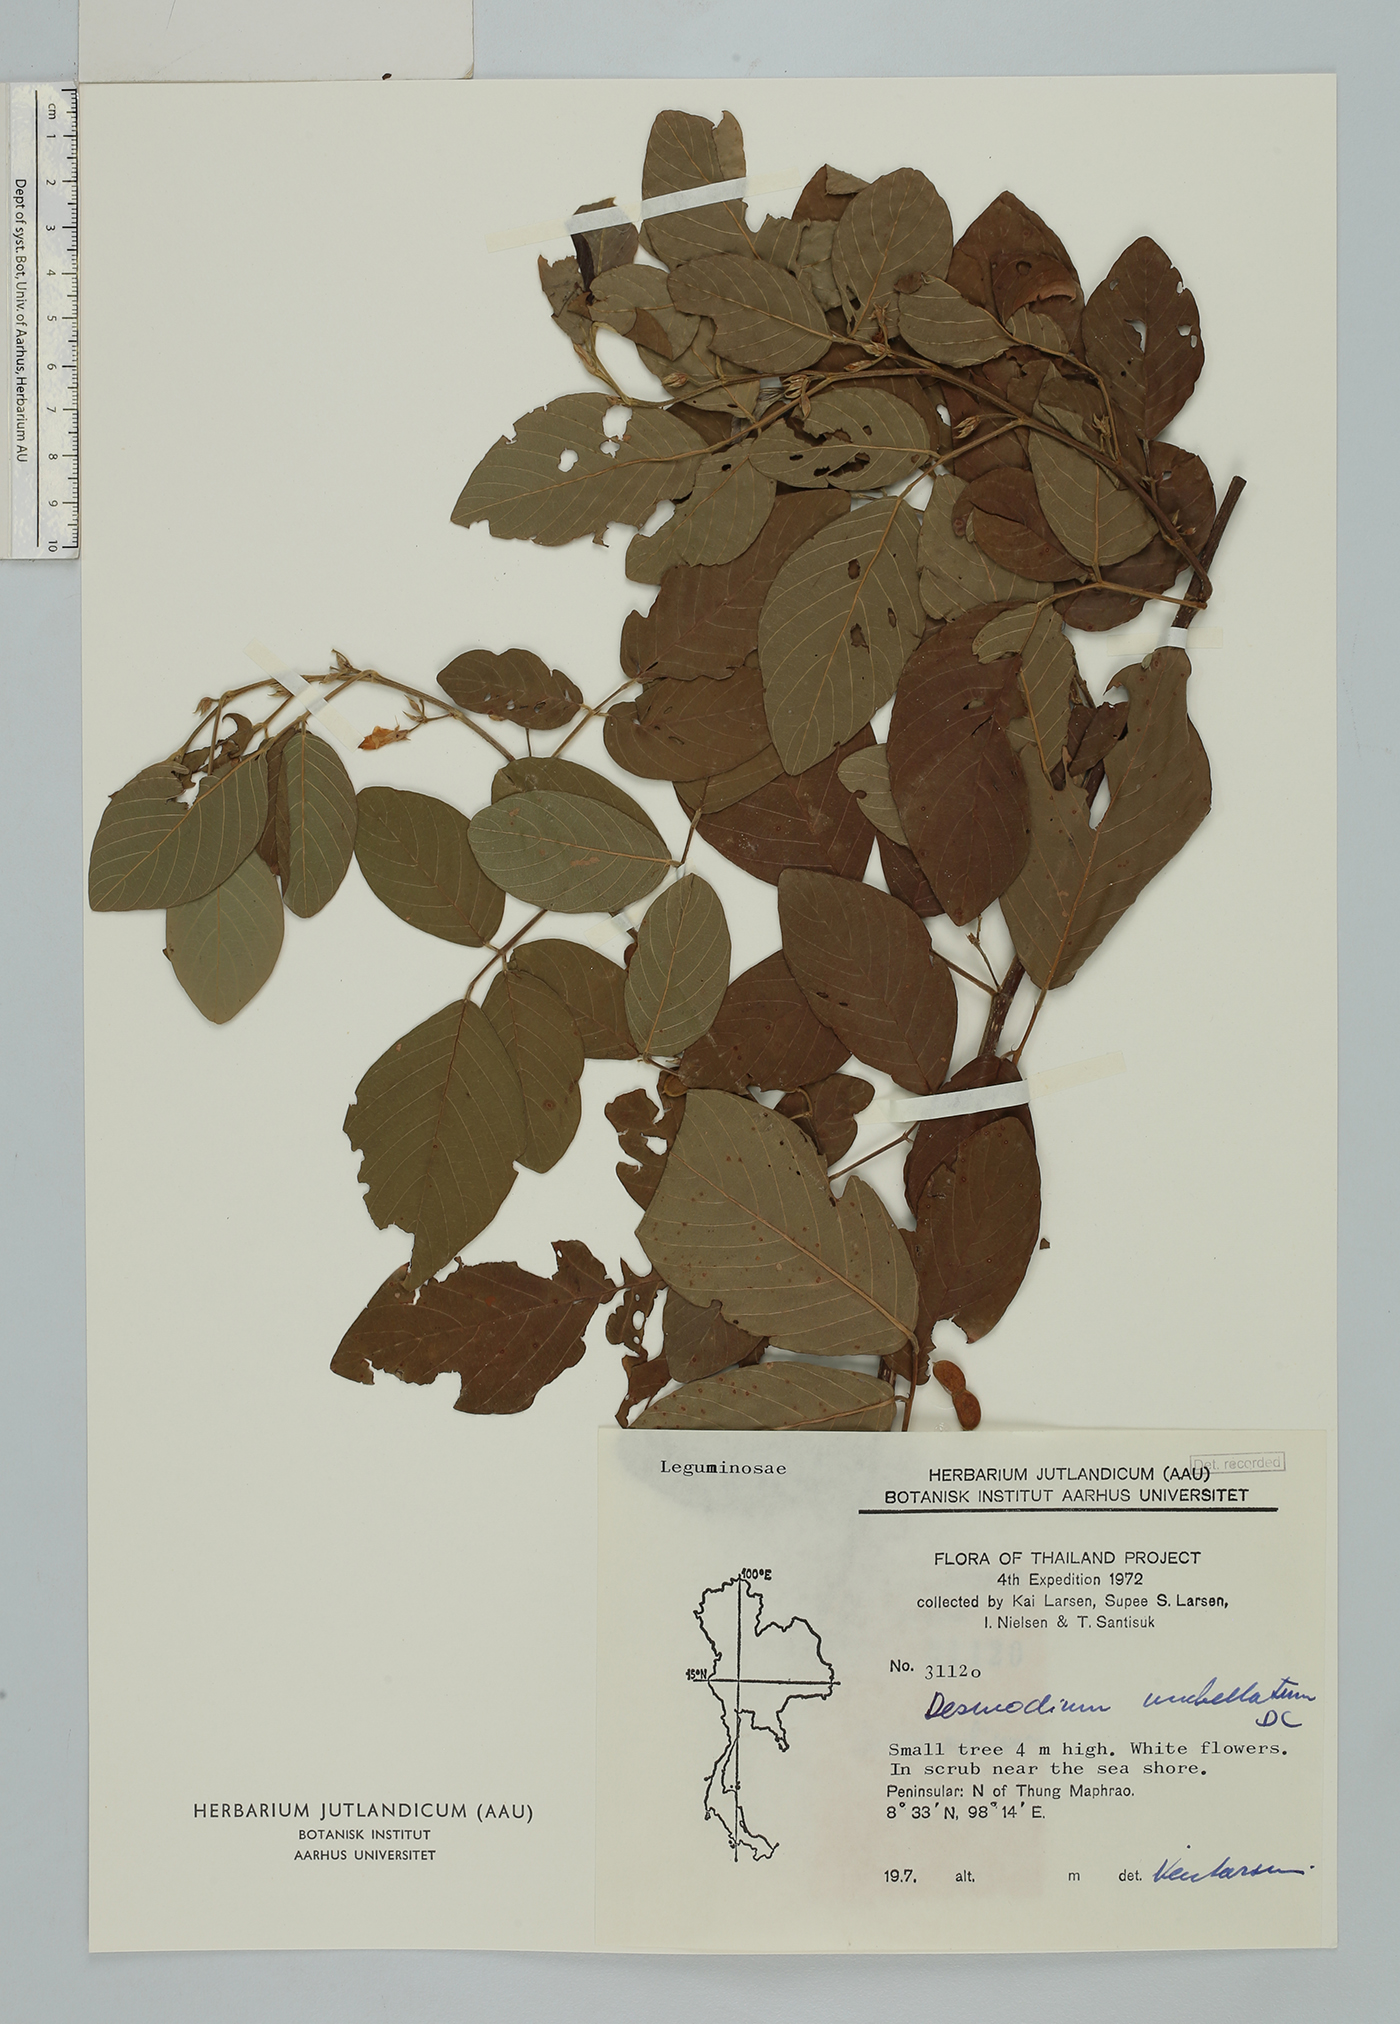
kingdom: Plantae
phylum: Tracheophyta
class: Magnoliopsida
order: Fabales
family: Fabaceae
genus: Dendrolobium
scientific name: Dendrolobium umbellatum
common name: Horsebush
